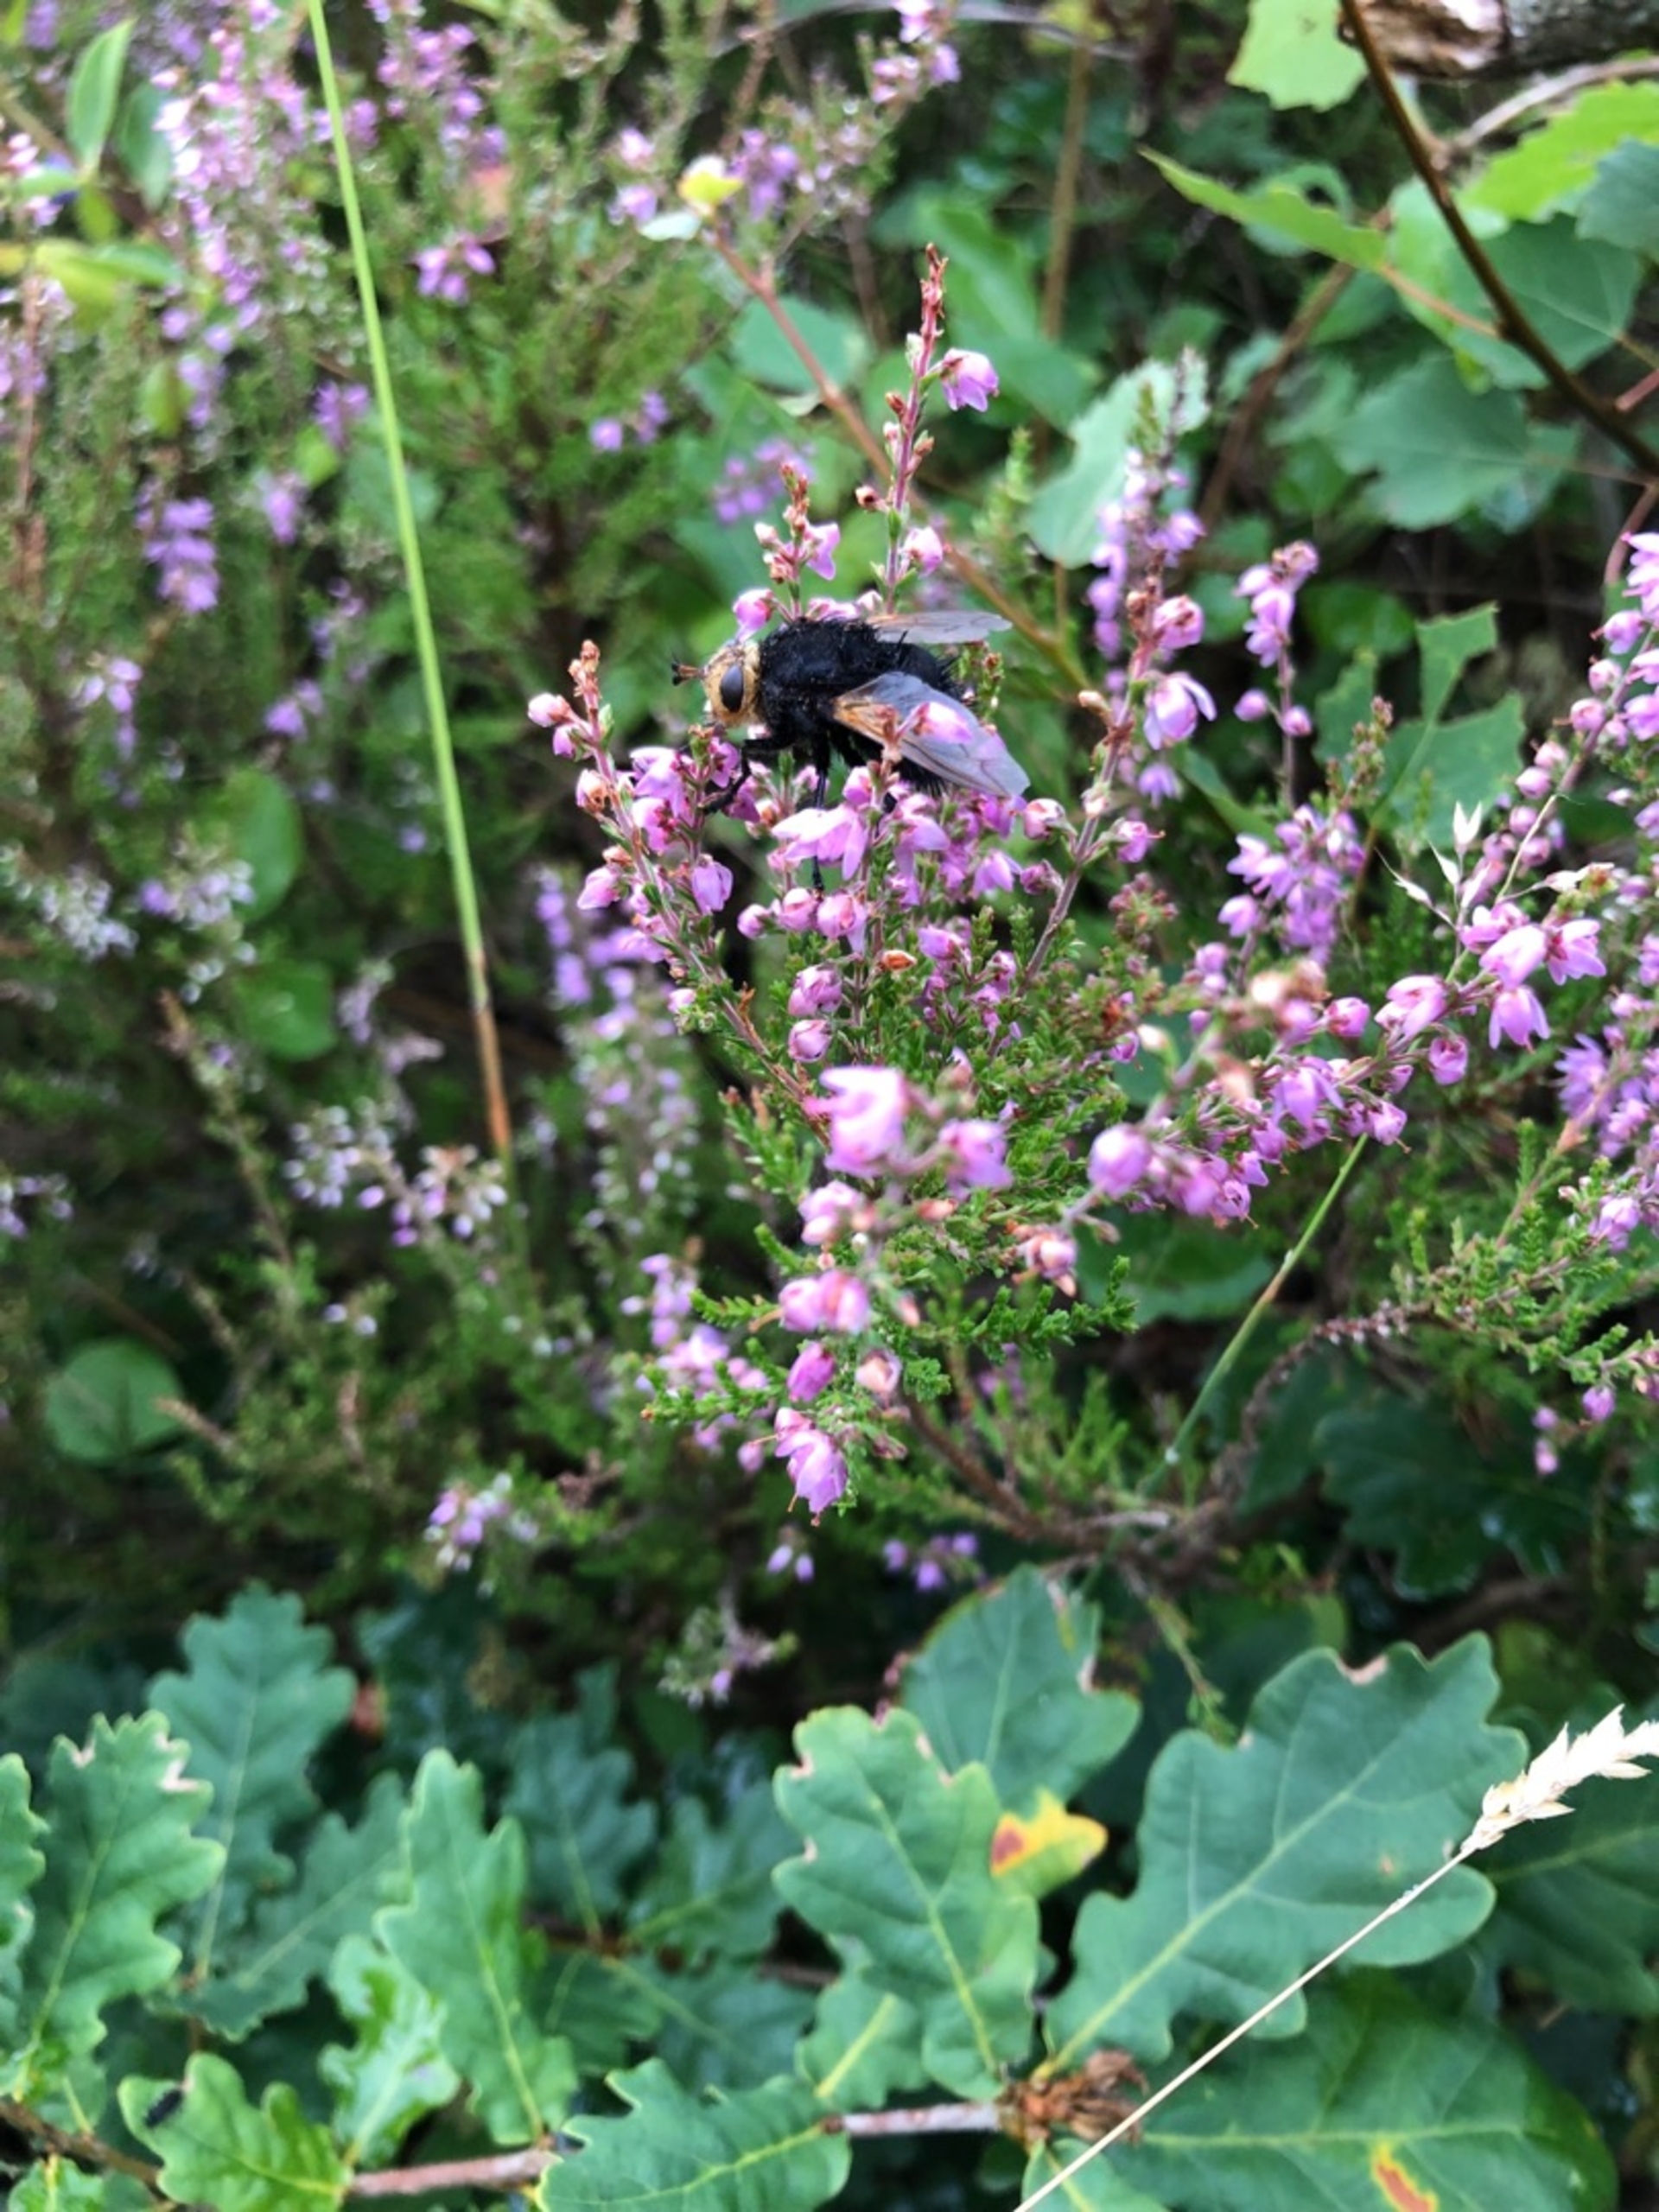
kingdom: Animalia
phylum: Arthropoda
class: Insecta
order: Diptera
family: Tachinidae
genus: Tachina
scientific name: Tachina grossa
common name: Kæmpefluen Harald
